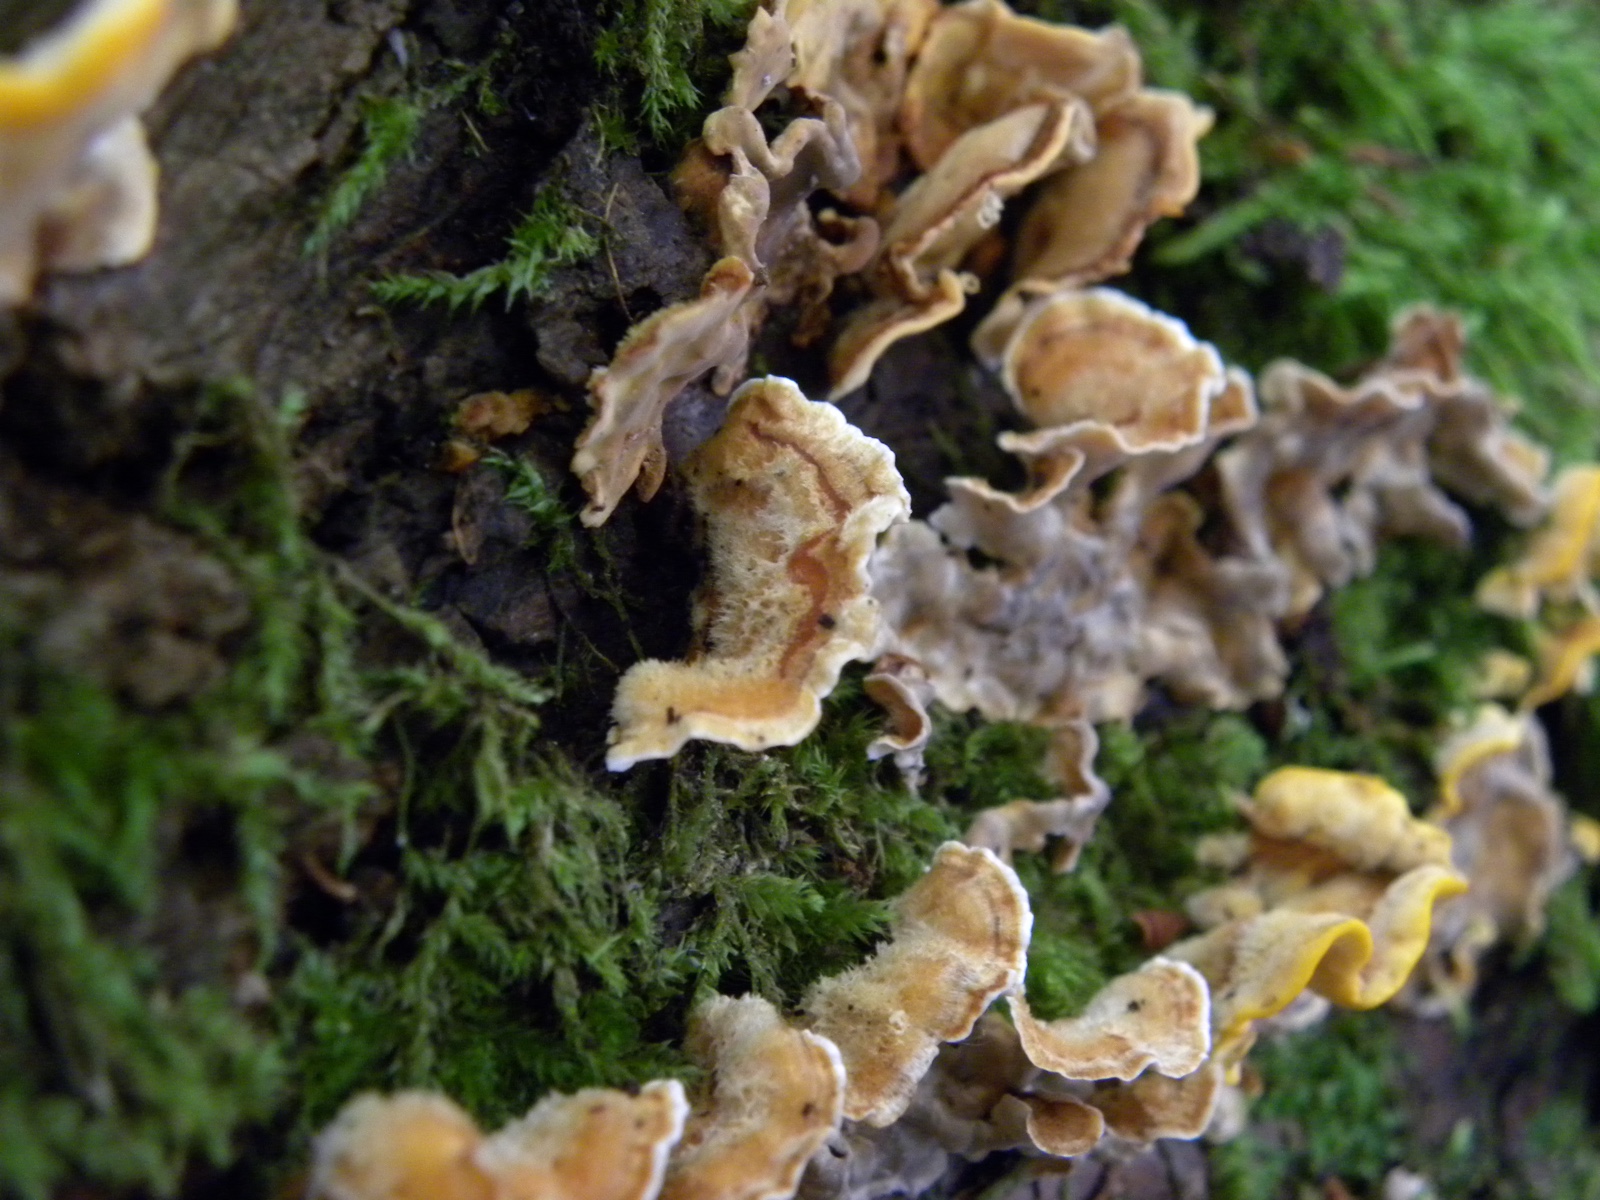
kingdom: Fungi
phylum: Basidiomycota
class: Agaricomycetes
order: Russulales
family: Stereaceae
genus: Stereum
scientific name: Stereum hirsutum
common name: håret lædersvamp
